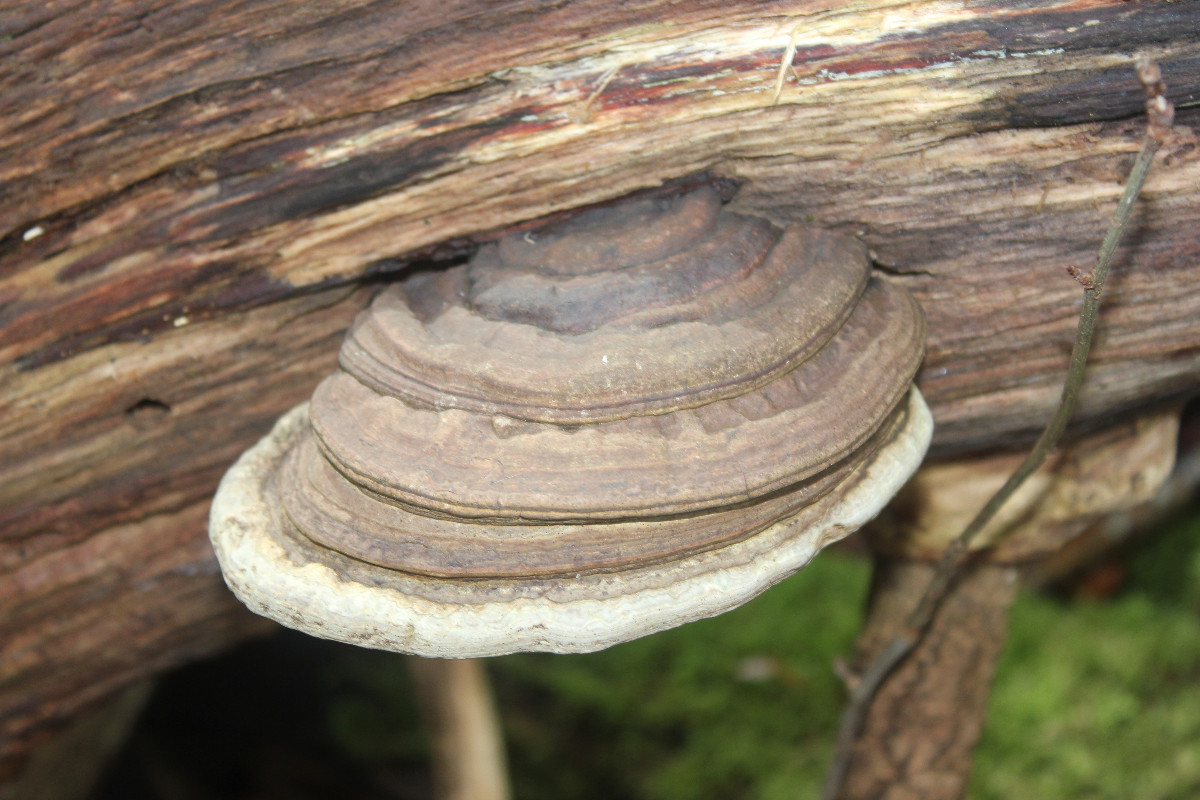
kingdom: Fungi
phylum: Basidiomycota
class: Agaricomycetes
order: Polyporales
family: Polyporaceae
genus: Fomes
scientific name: Fomes fomentarius
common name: tøndersvamp
